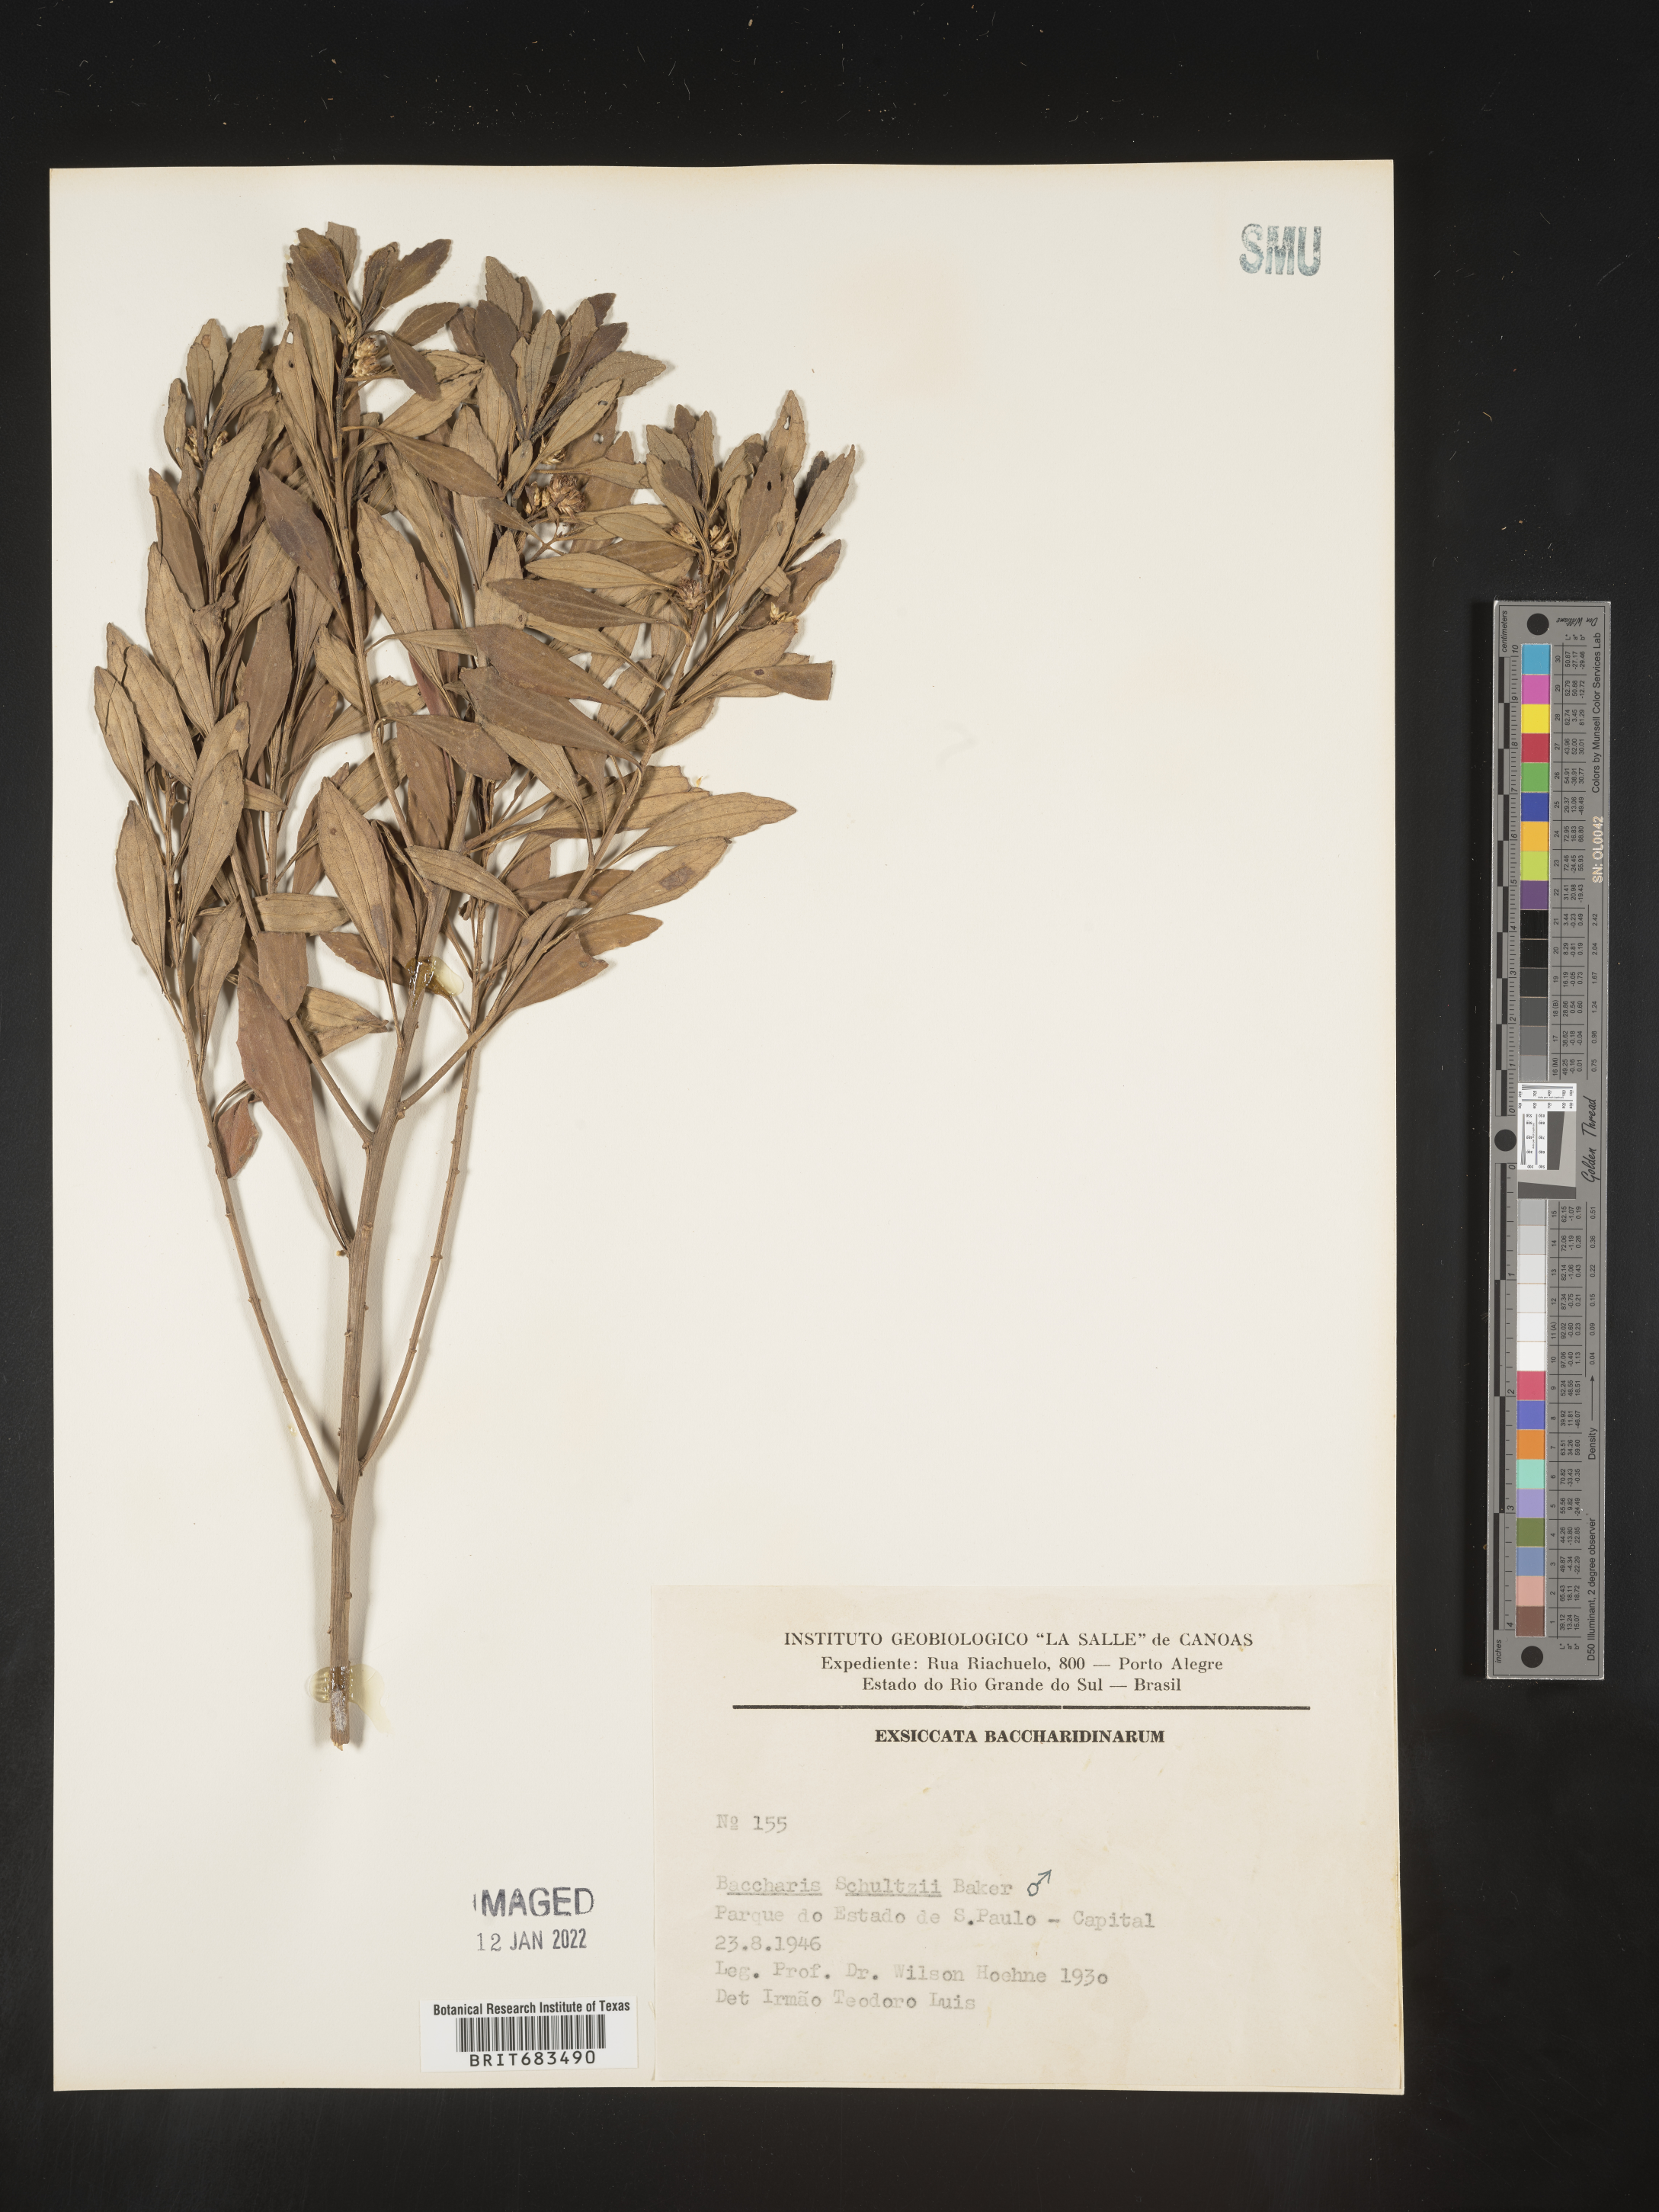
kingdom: Plantae
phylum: Tracheophyta
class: Magnoliopsida
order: Asterales
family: Asteraceae
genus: Baccharis
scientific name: Baccharis
